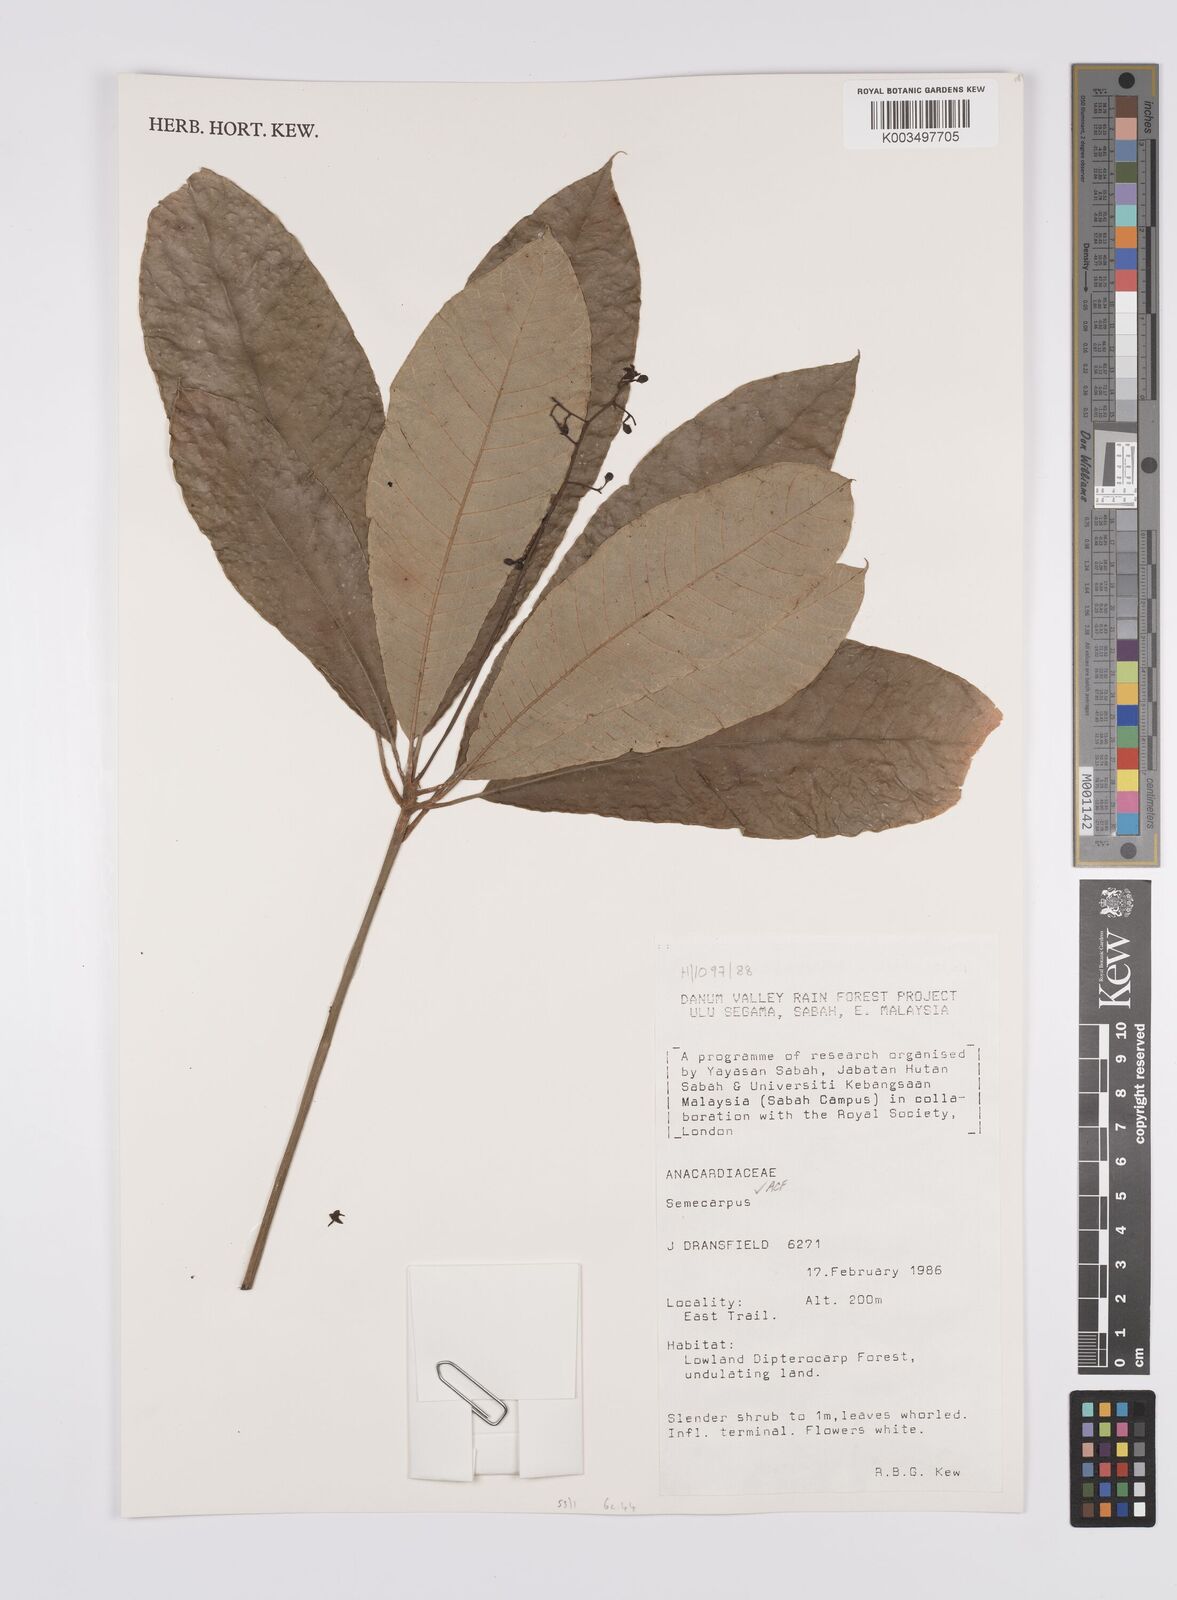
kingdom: Plantae
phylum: Tracheophyta
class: Magnoliopsida
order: Sapindales
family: Anacardiaceae
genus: Semecarpus
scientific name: Semecarpus
